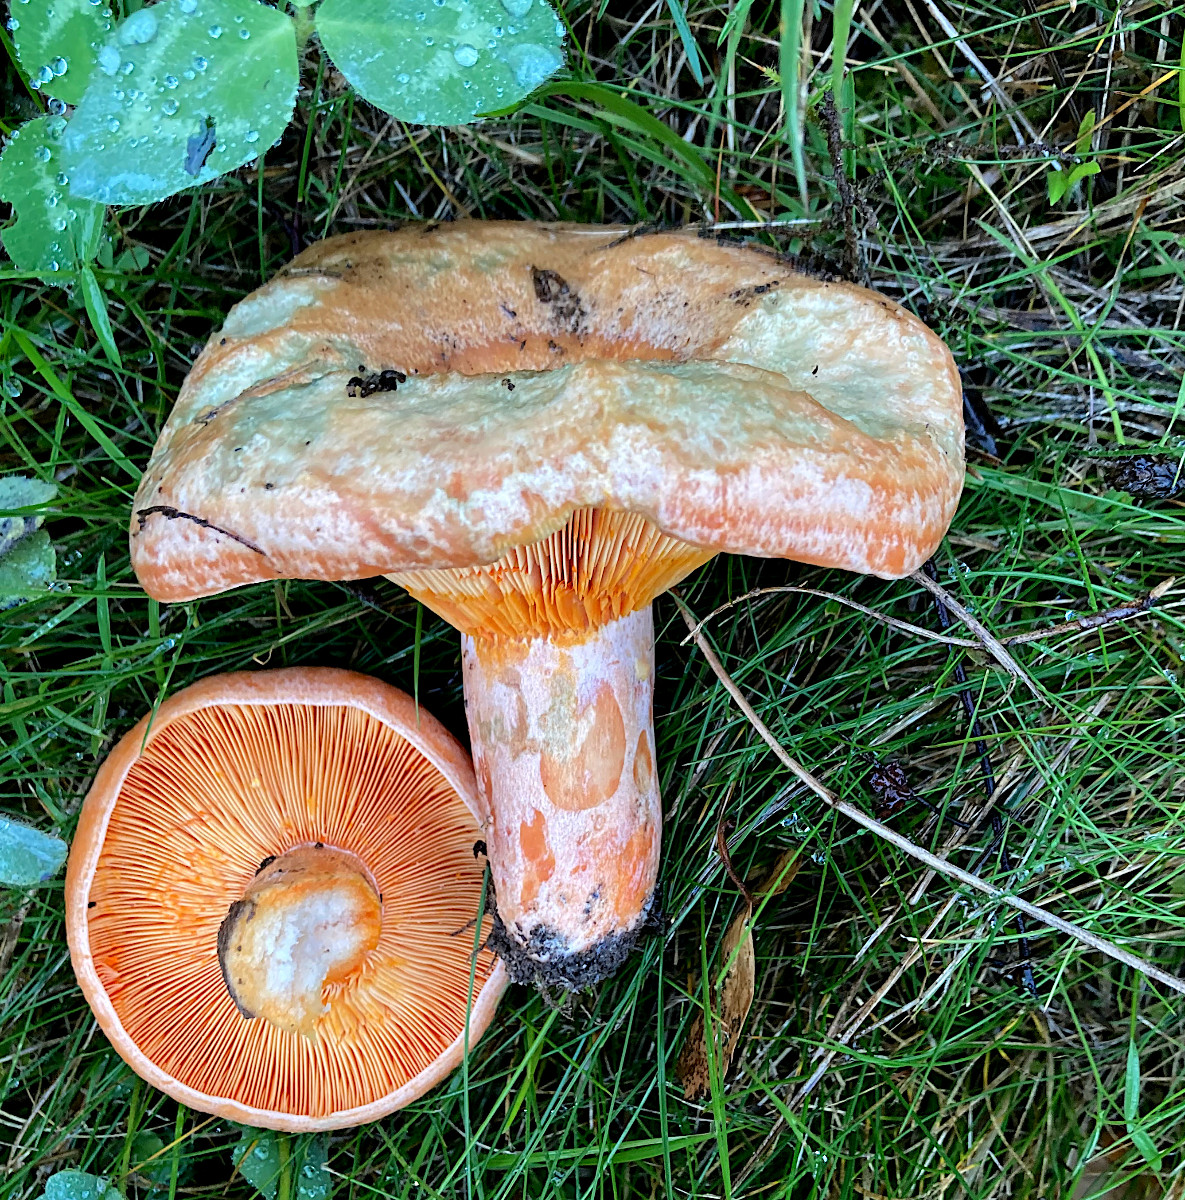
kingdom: Fungi
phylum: Basidiomycota
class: Agaricomycetes
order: Russulales
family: Russulaceae
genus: Lactarius
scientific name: Lactarius deliciosus
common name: velsmagende mælkehat
